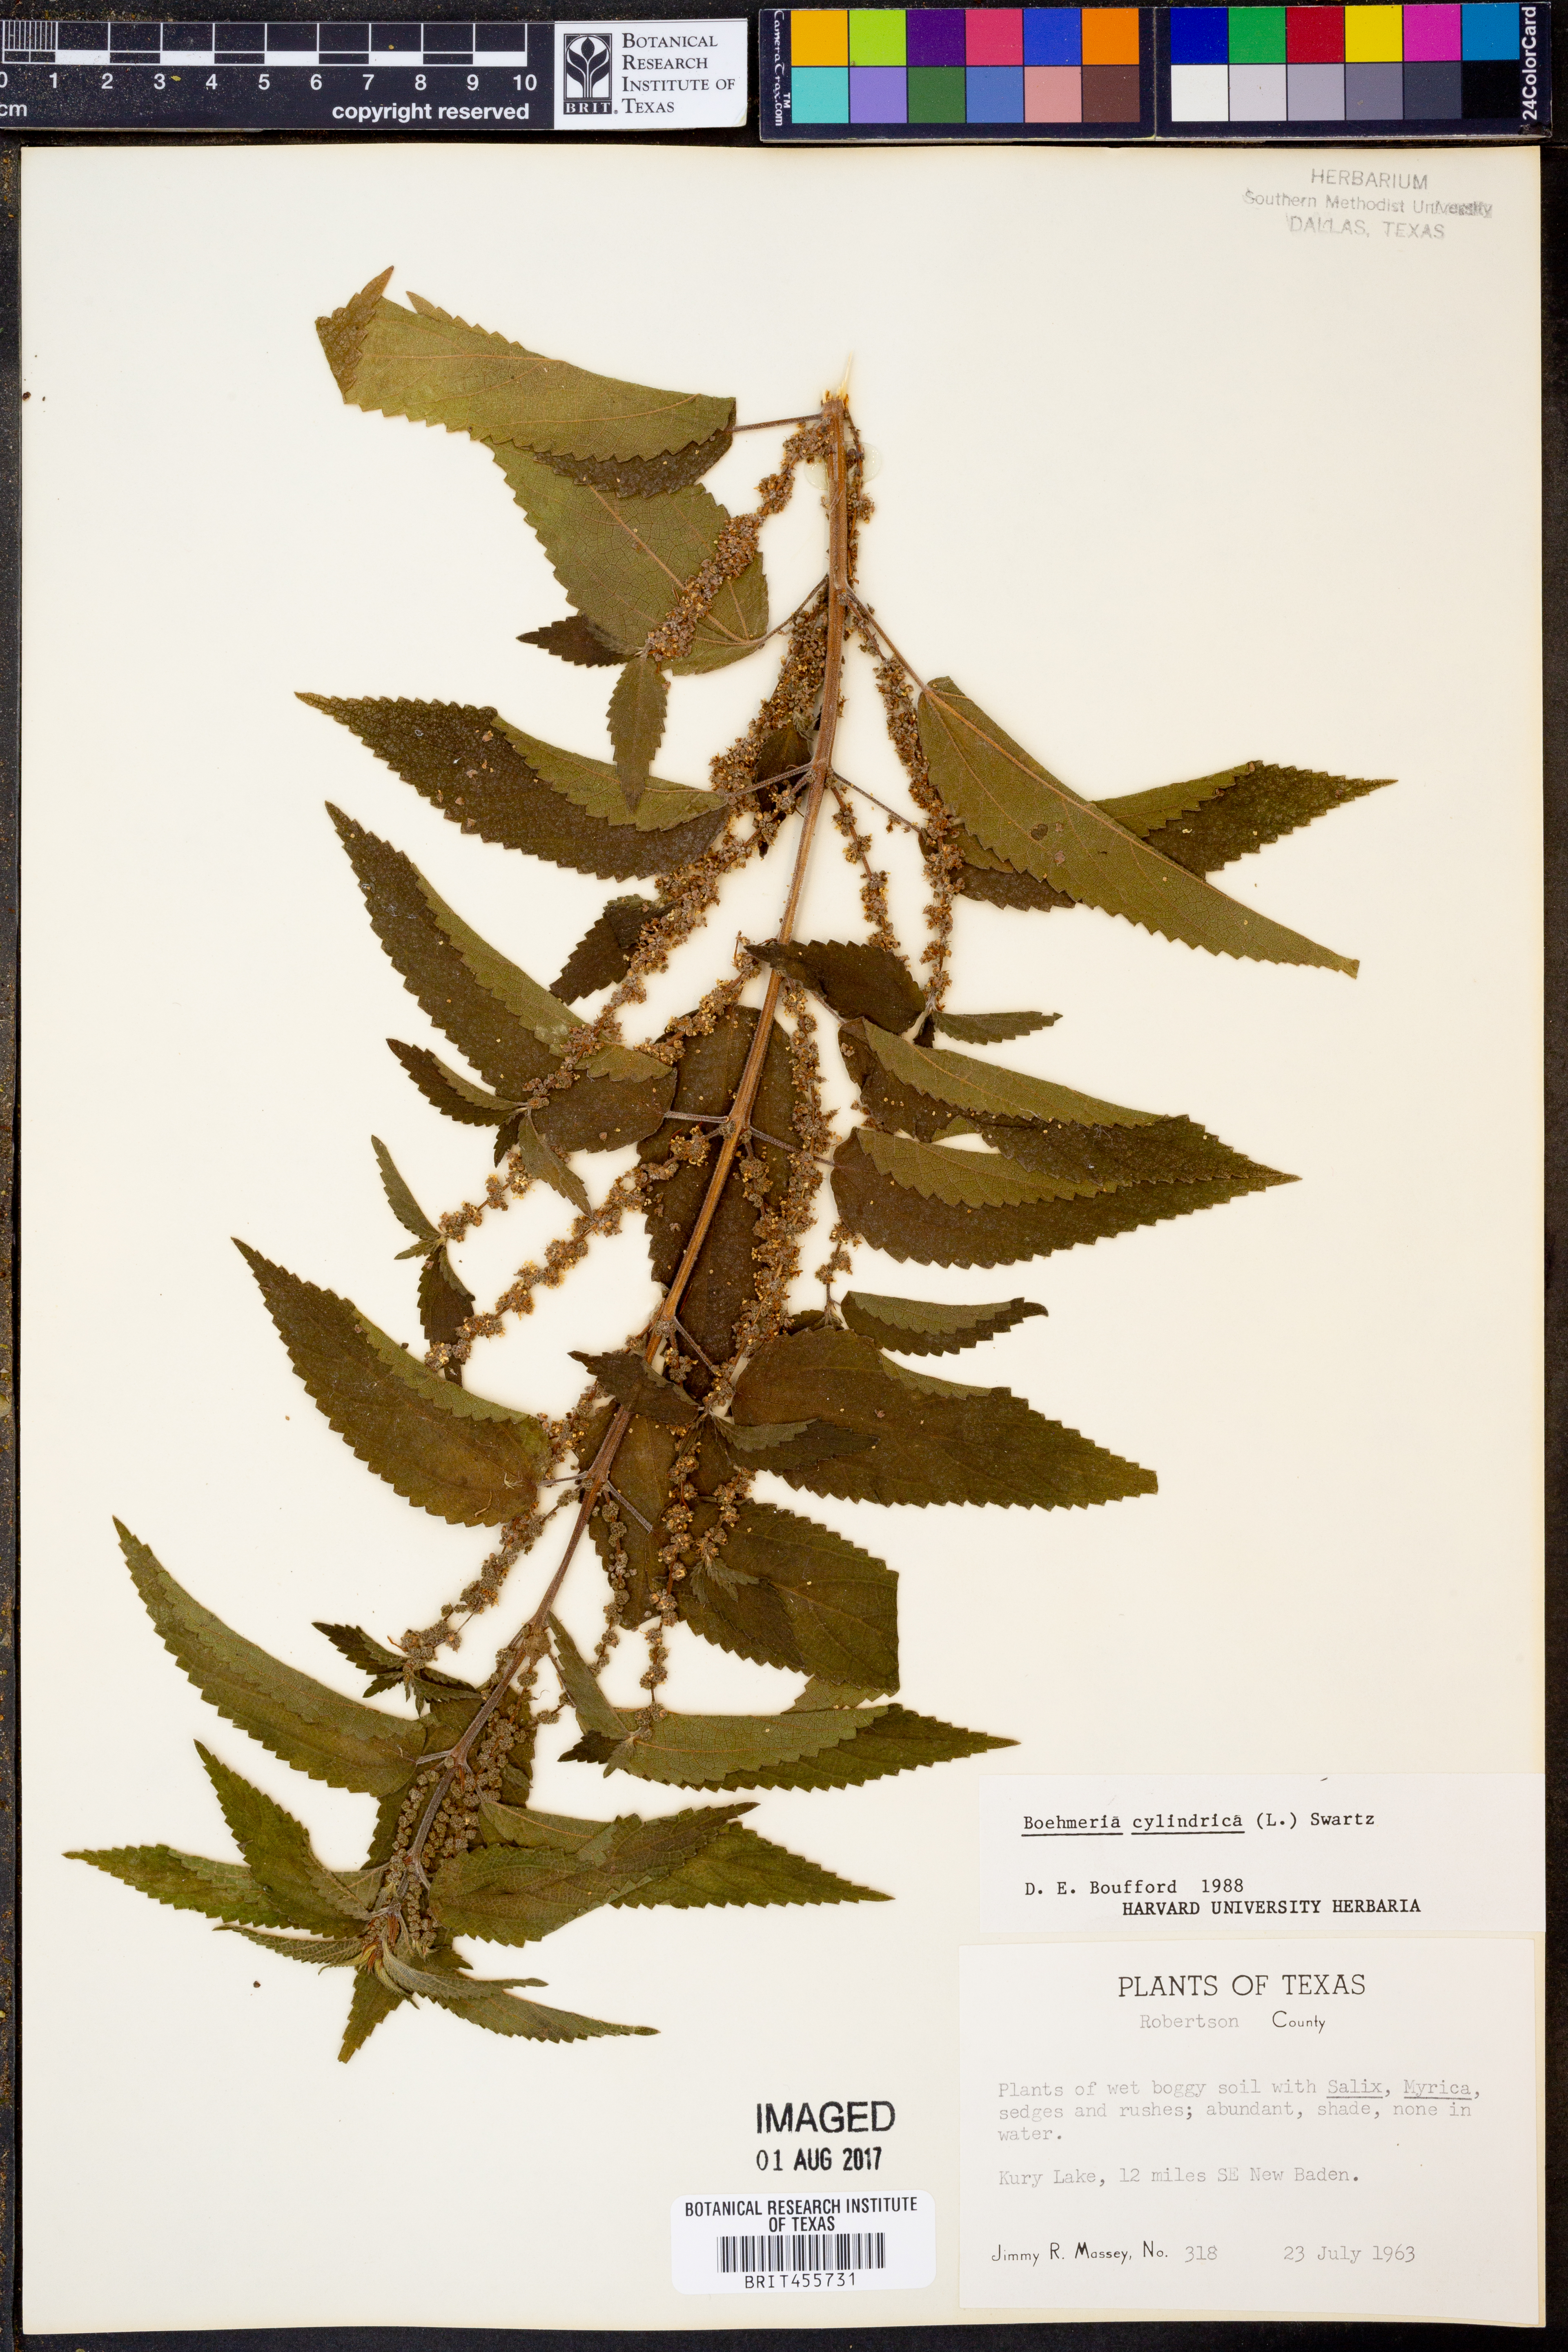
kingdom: Plantae
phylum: Tracheophyta
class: Magnoliopsida
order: Rosales
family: Urticaceae
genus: Boehmeria
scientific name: Boehmeria cylindrica
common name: Bog-hemp
